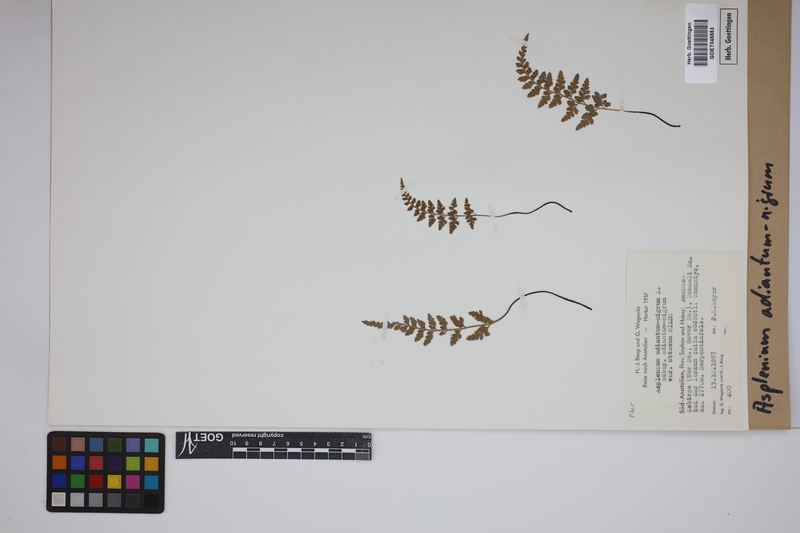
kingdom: Plantae
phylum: Tracheophyta
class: Polypodiopsida
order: Polypodiales
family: Aspleniaceae
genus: Asplenium
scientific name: Asplenium adiantum-nigrum
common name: Black spleenwort
